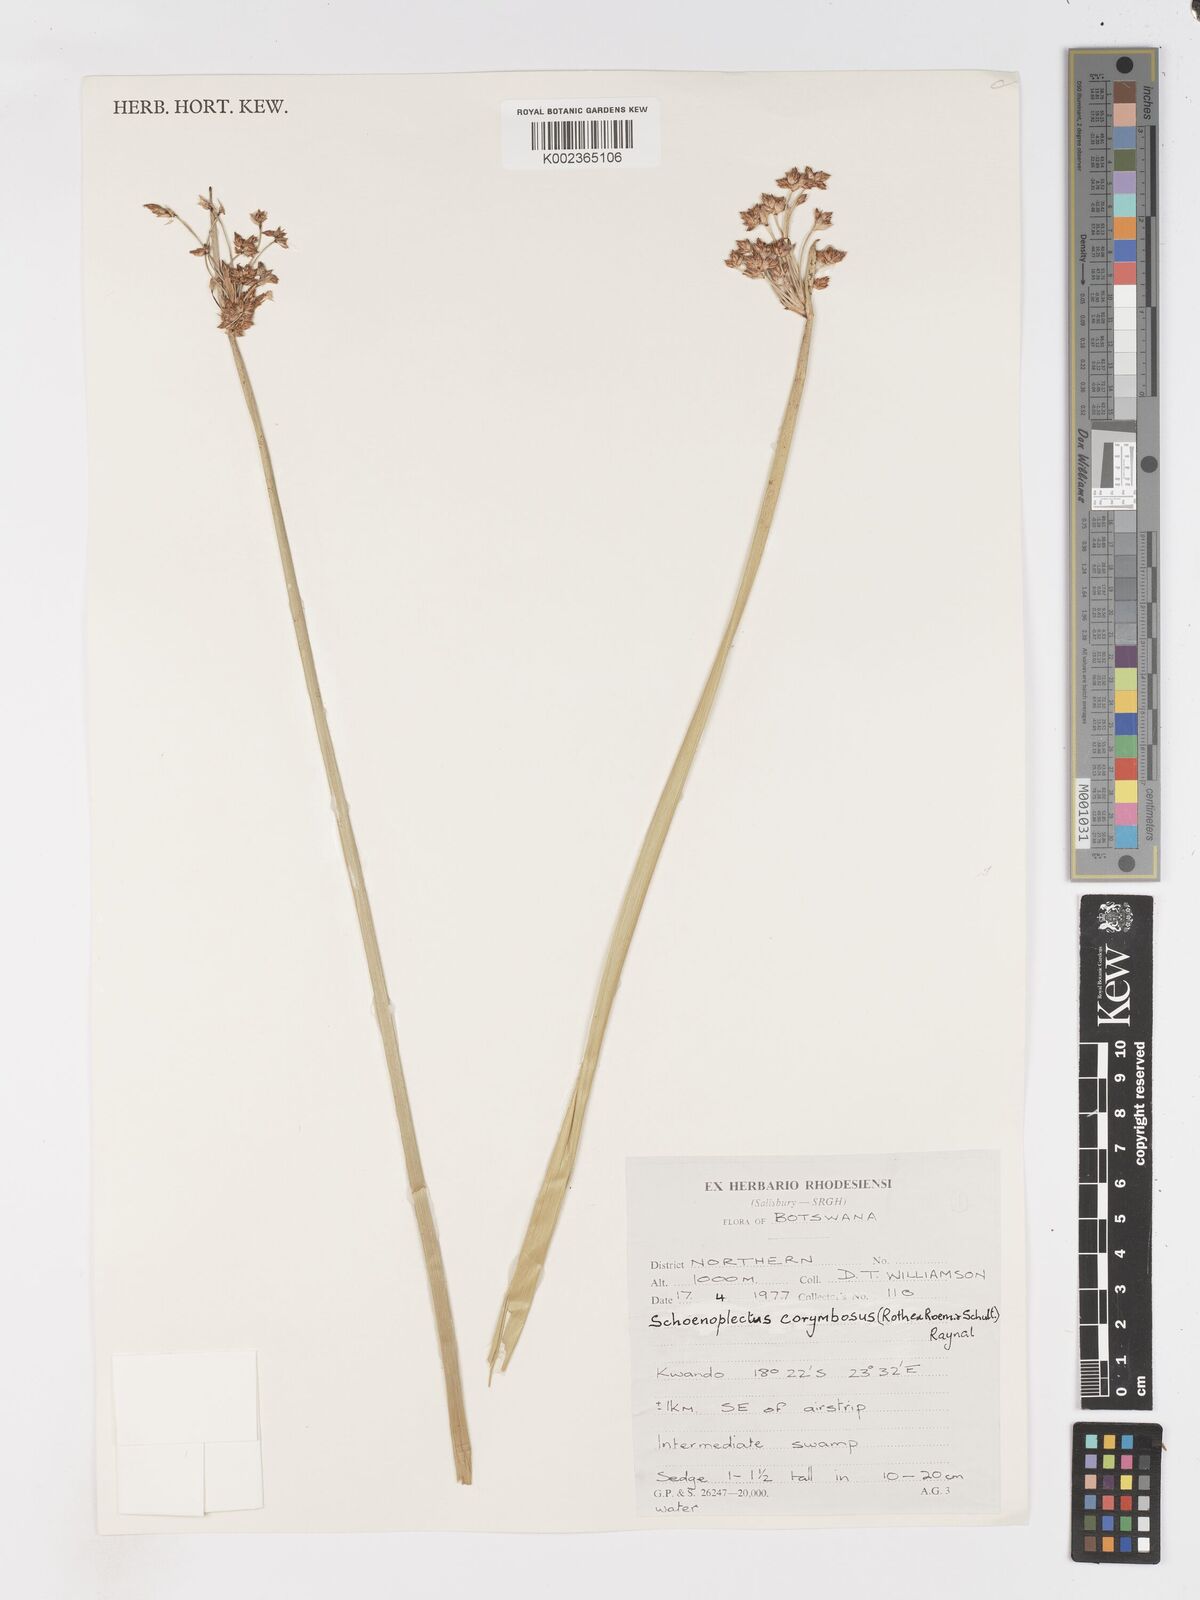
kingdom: Plantae
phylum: Tracheophyta
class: Liliopsida
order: Poales
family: Cyperaceae
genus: Schoenoplectiella
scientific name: Schoenoplectiella brachyceras
